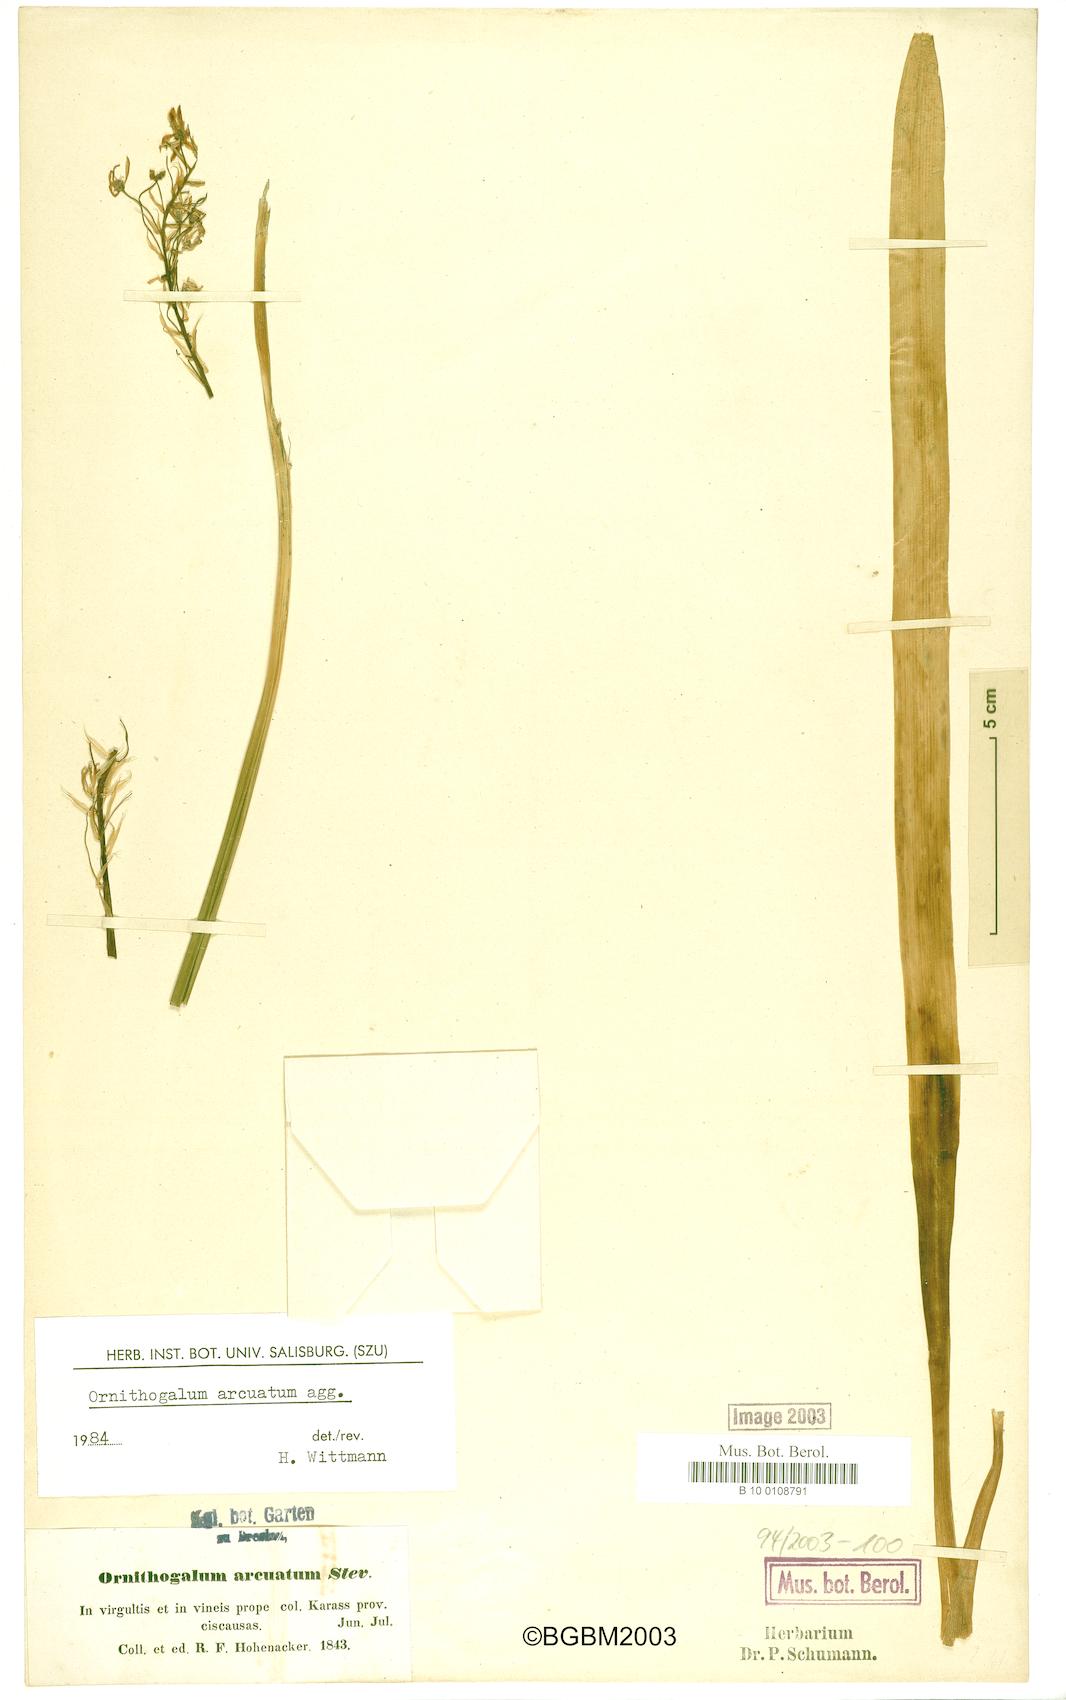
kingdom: Plantae
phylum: Tracheophyta
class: Liliopsida
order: Asparagales
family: Asparagaceae
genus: Ornithogalum
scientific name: Ornithogalum arcuatum
